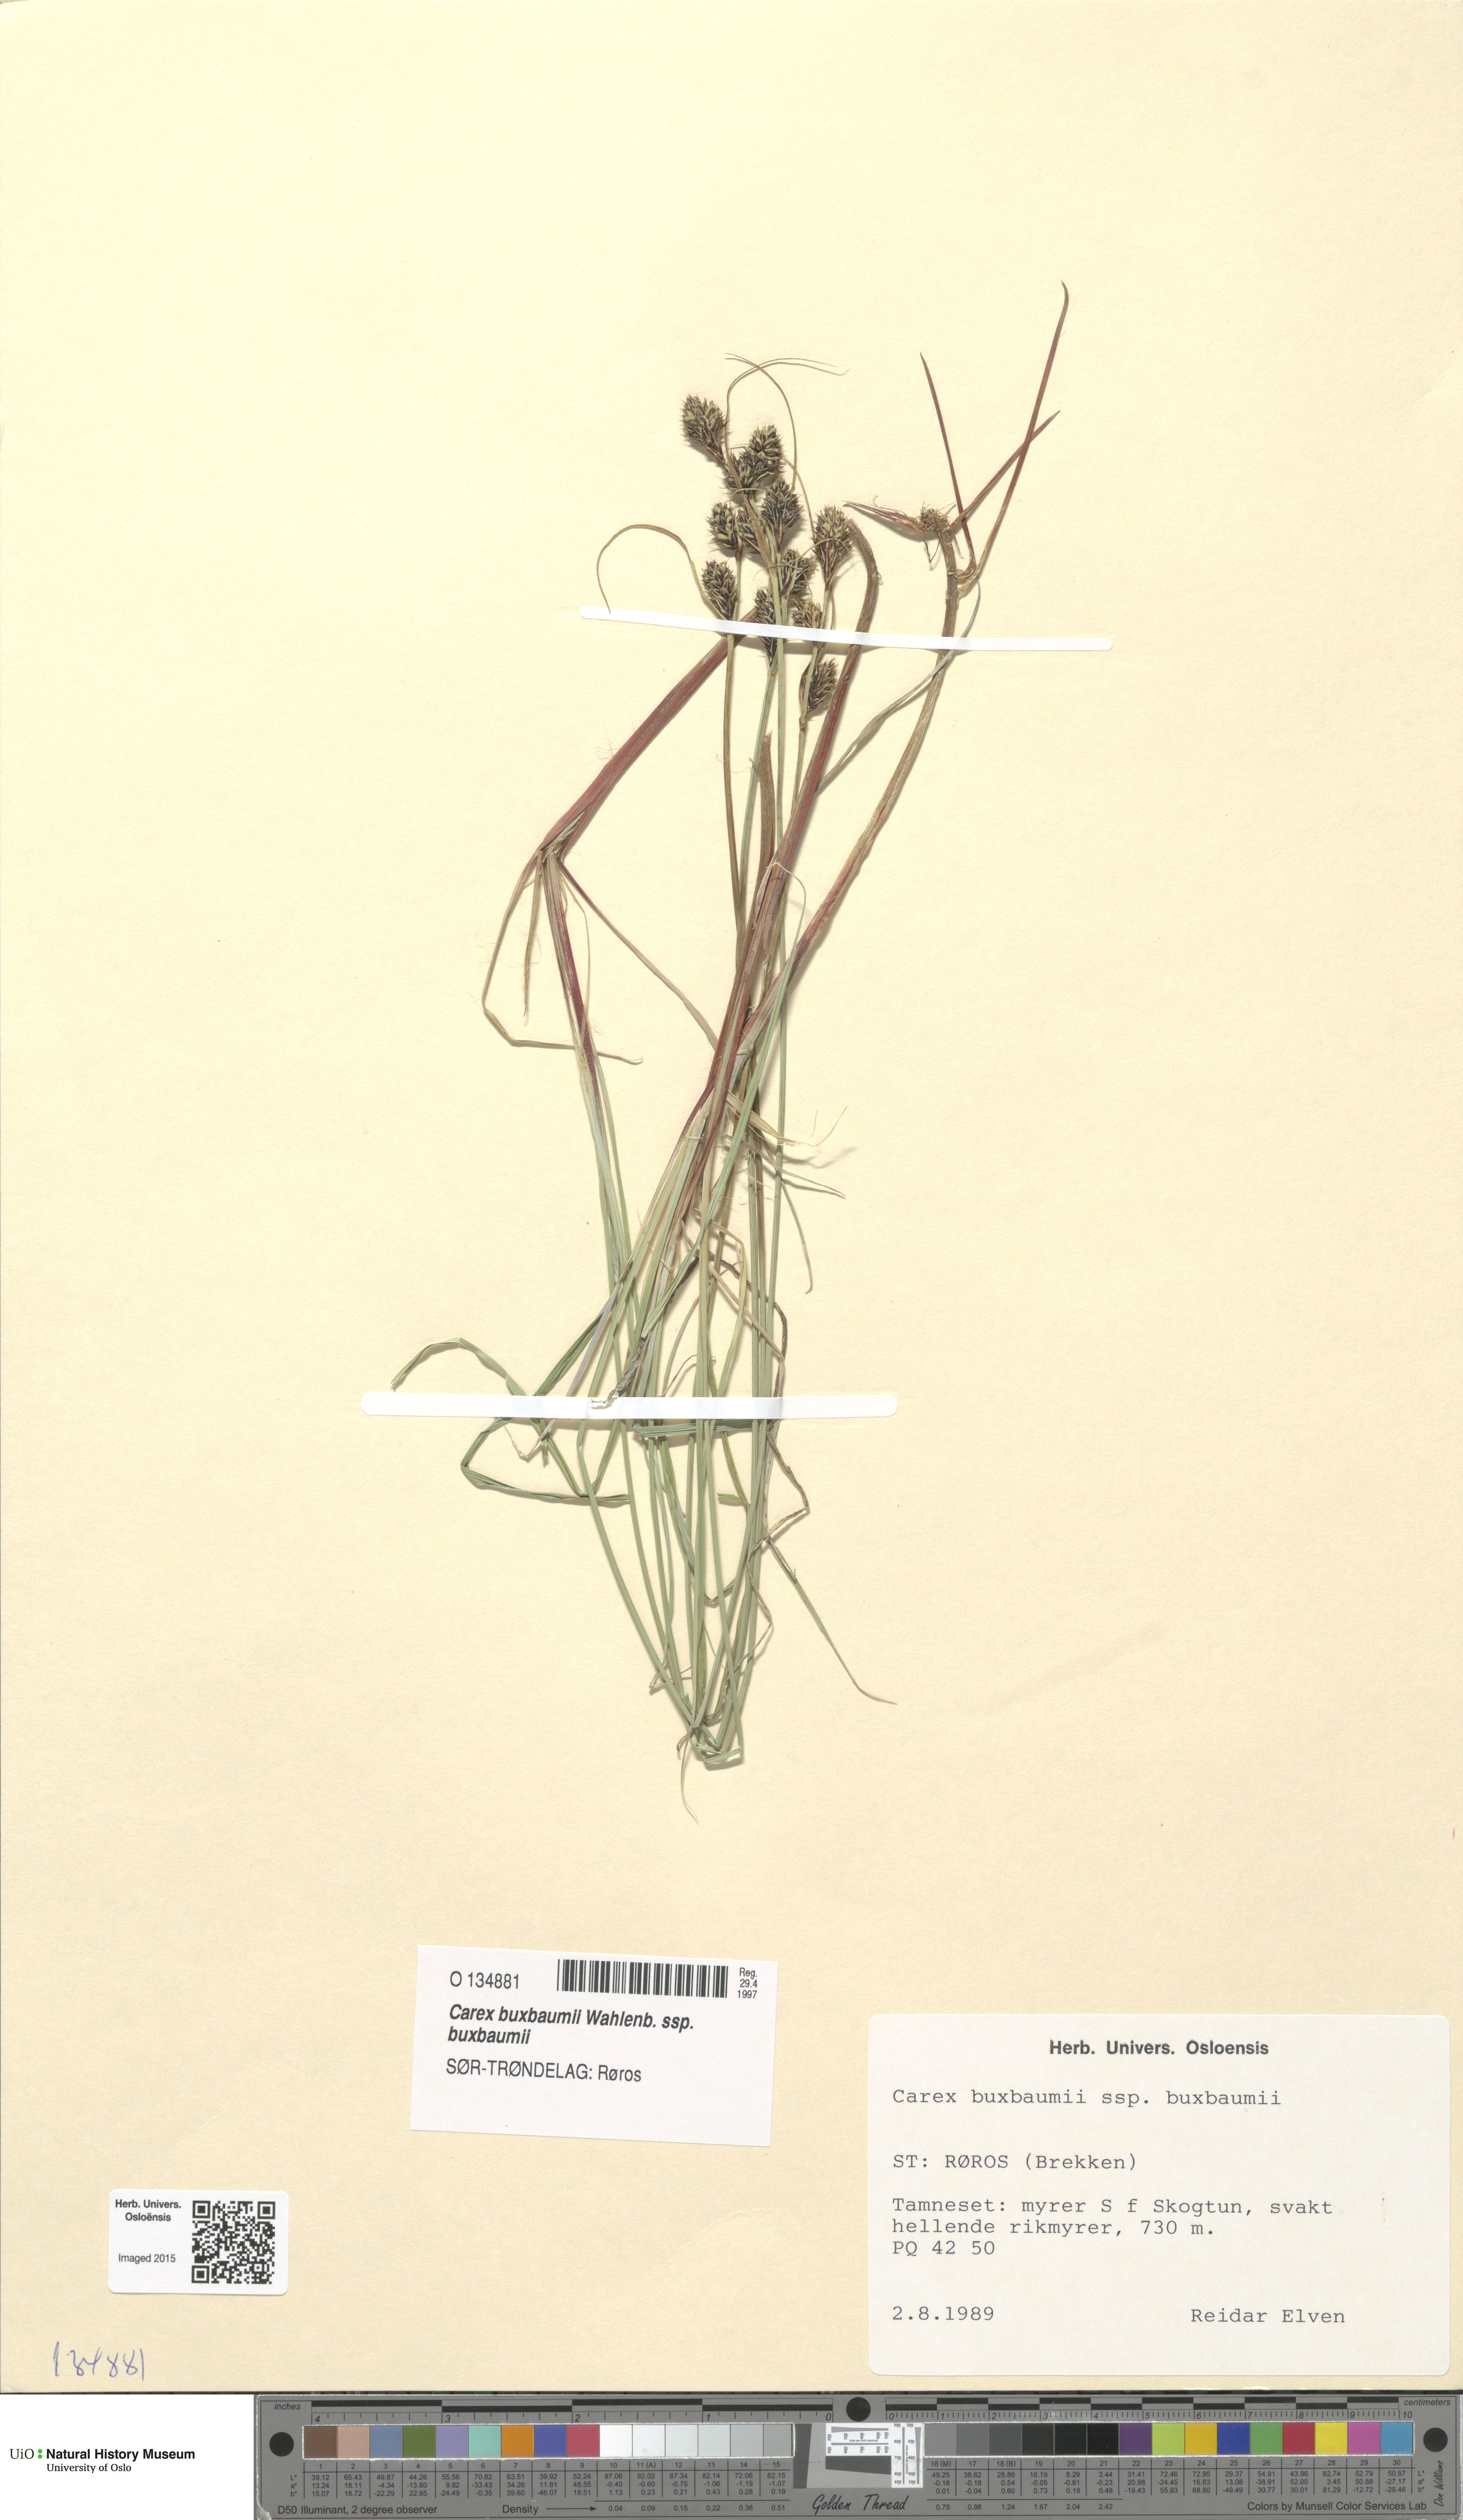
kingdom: Plantae
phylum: Tracheophyta
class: Liliopsida
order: Poales
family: Cyperaceae
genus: Carex
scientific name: Carex buxbaumii
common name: Club sedge
